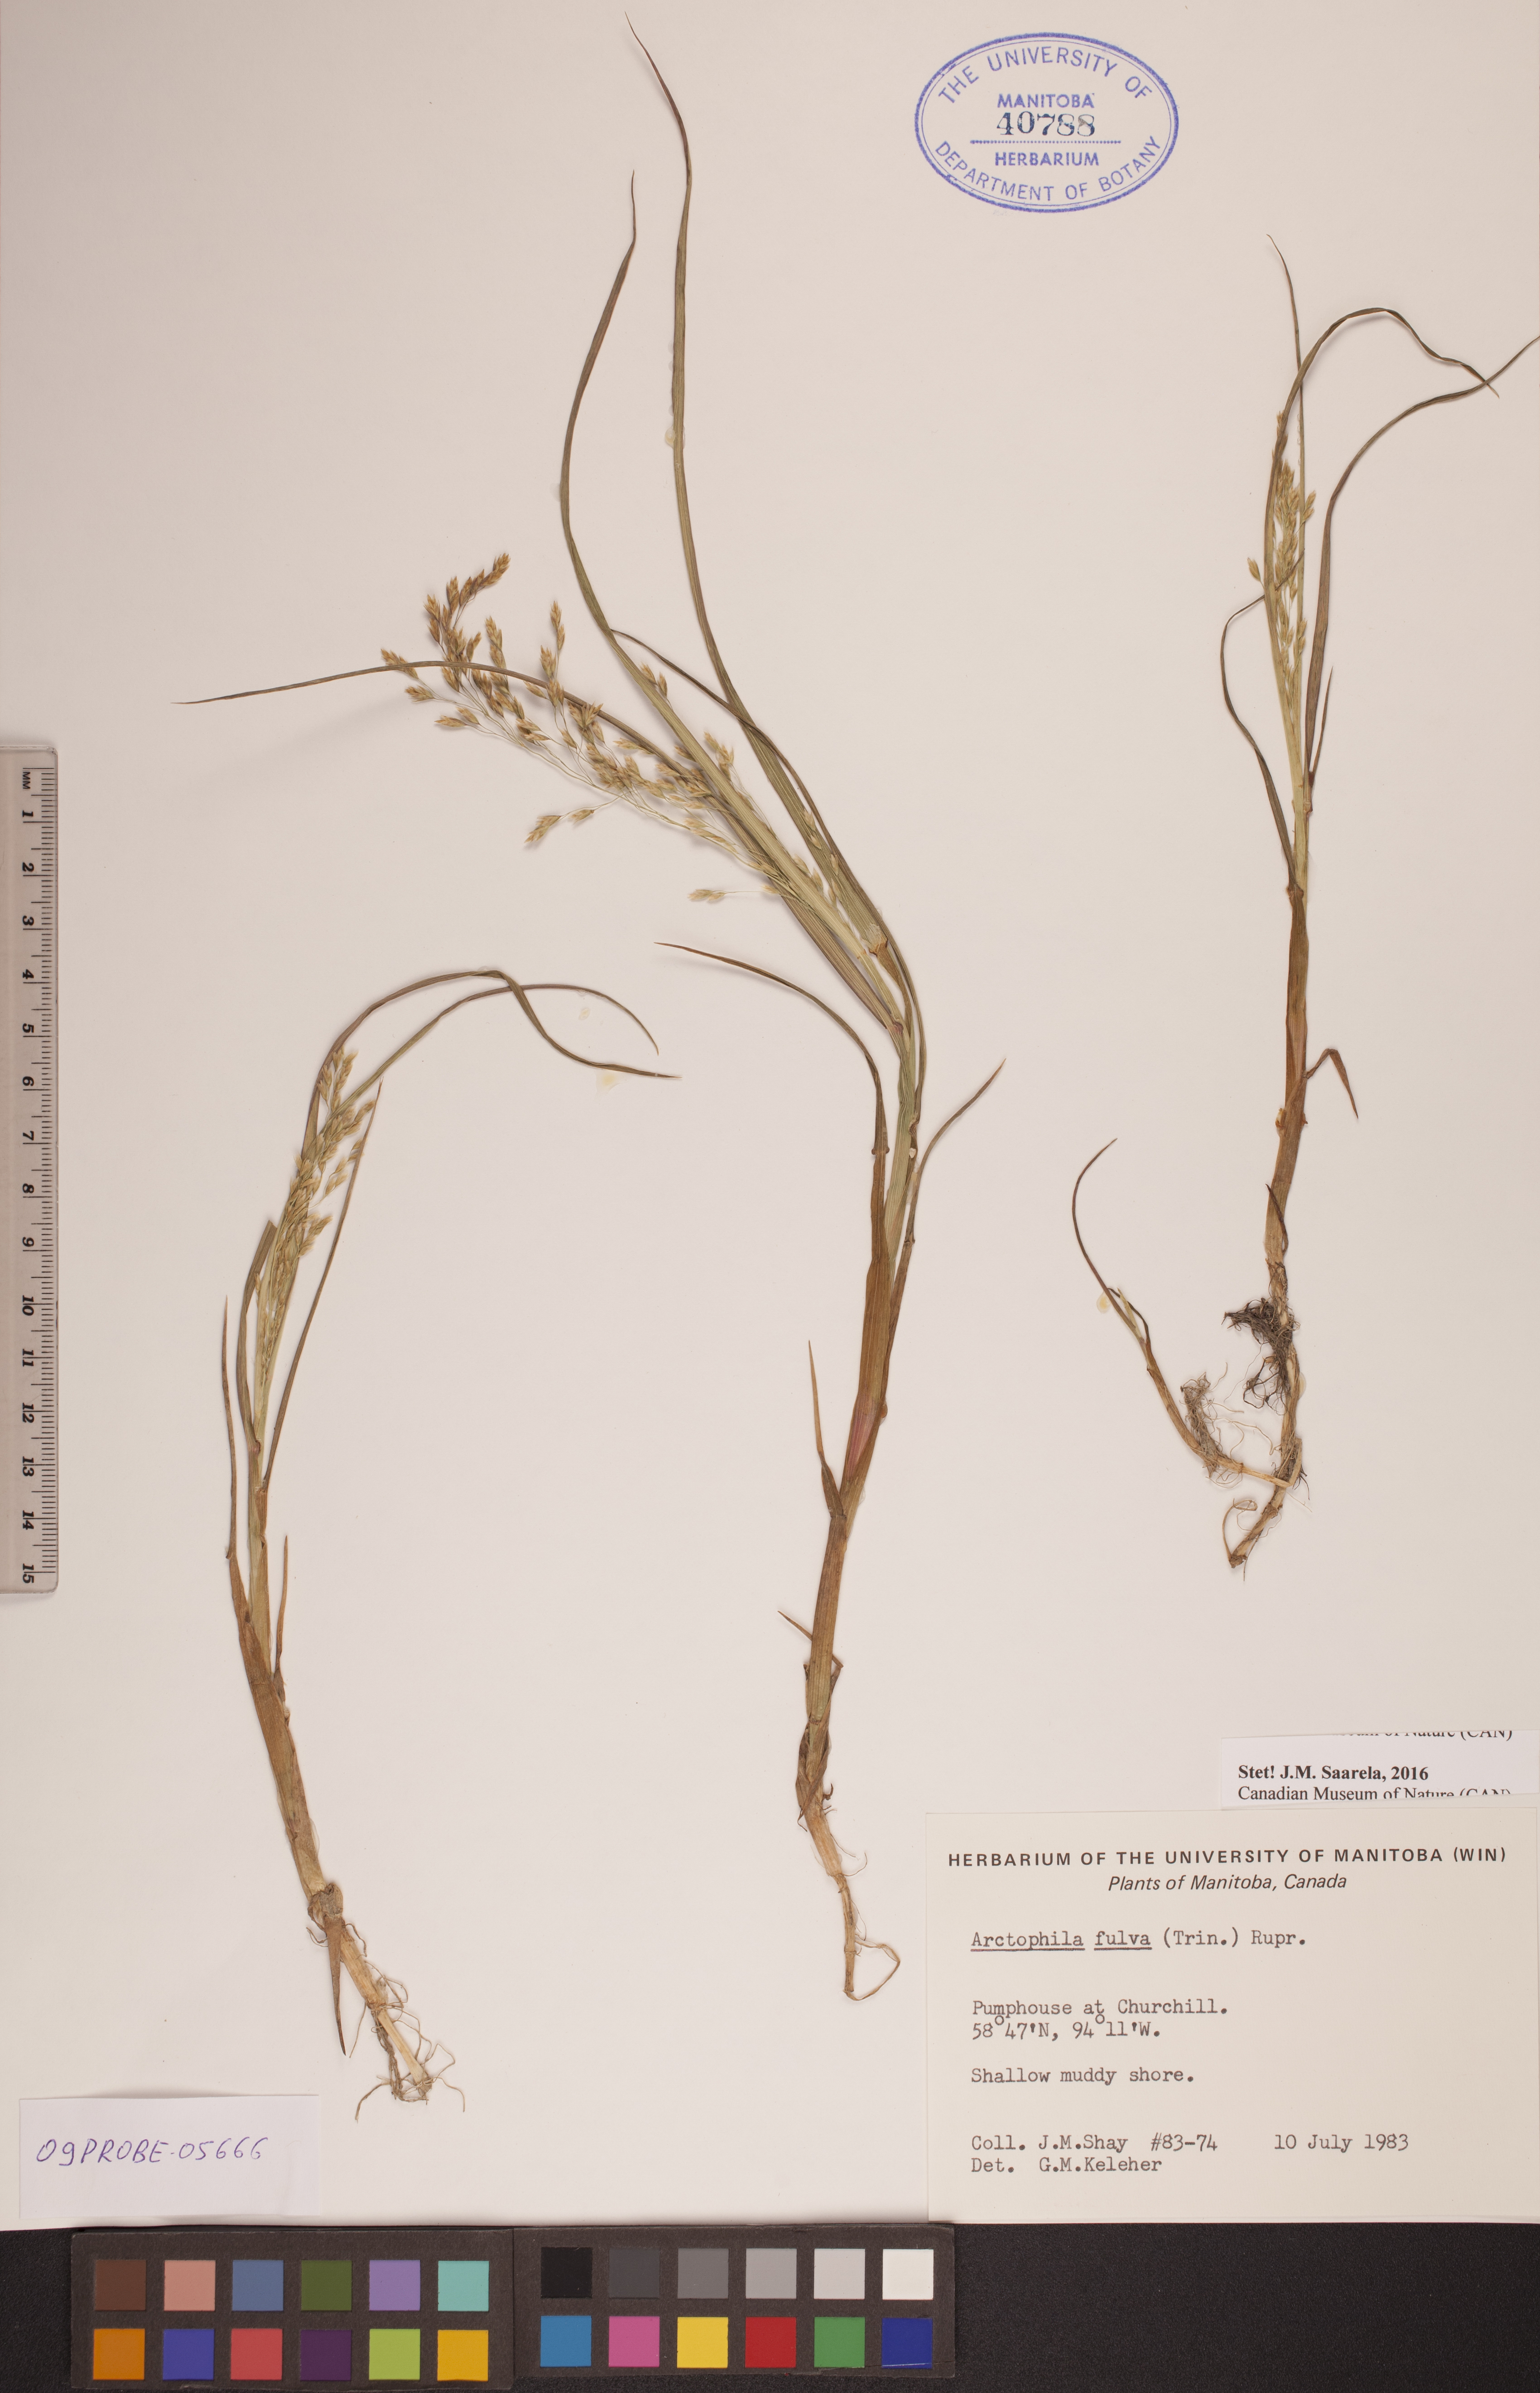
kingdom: Plantae
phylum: Tracheophyta
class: Liliopsida
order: Poales
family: Poaceae
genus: Dupontia
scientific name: Dupontia fulva
